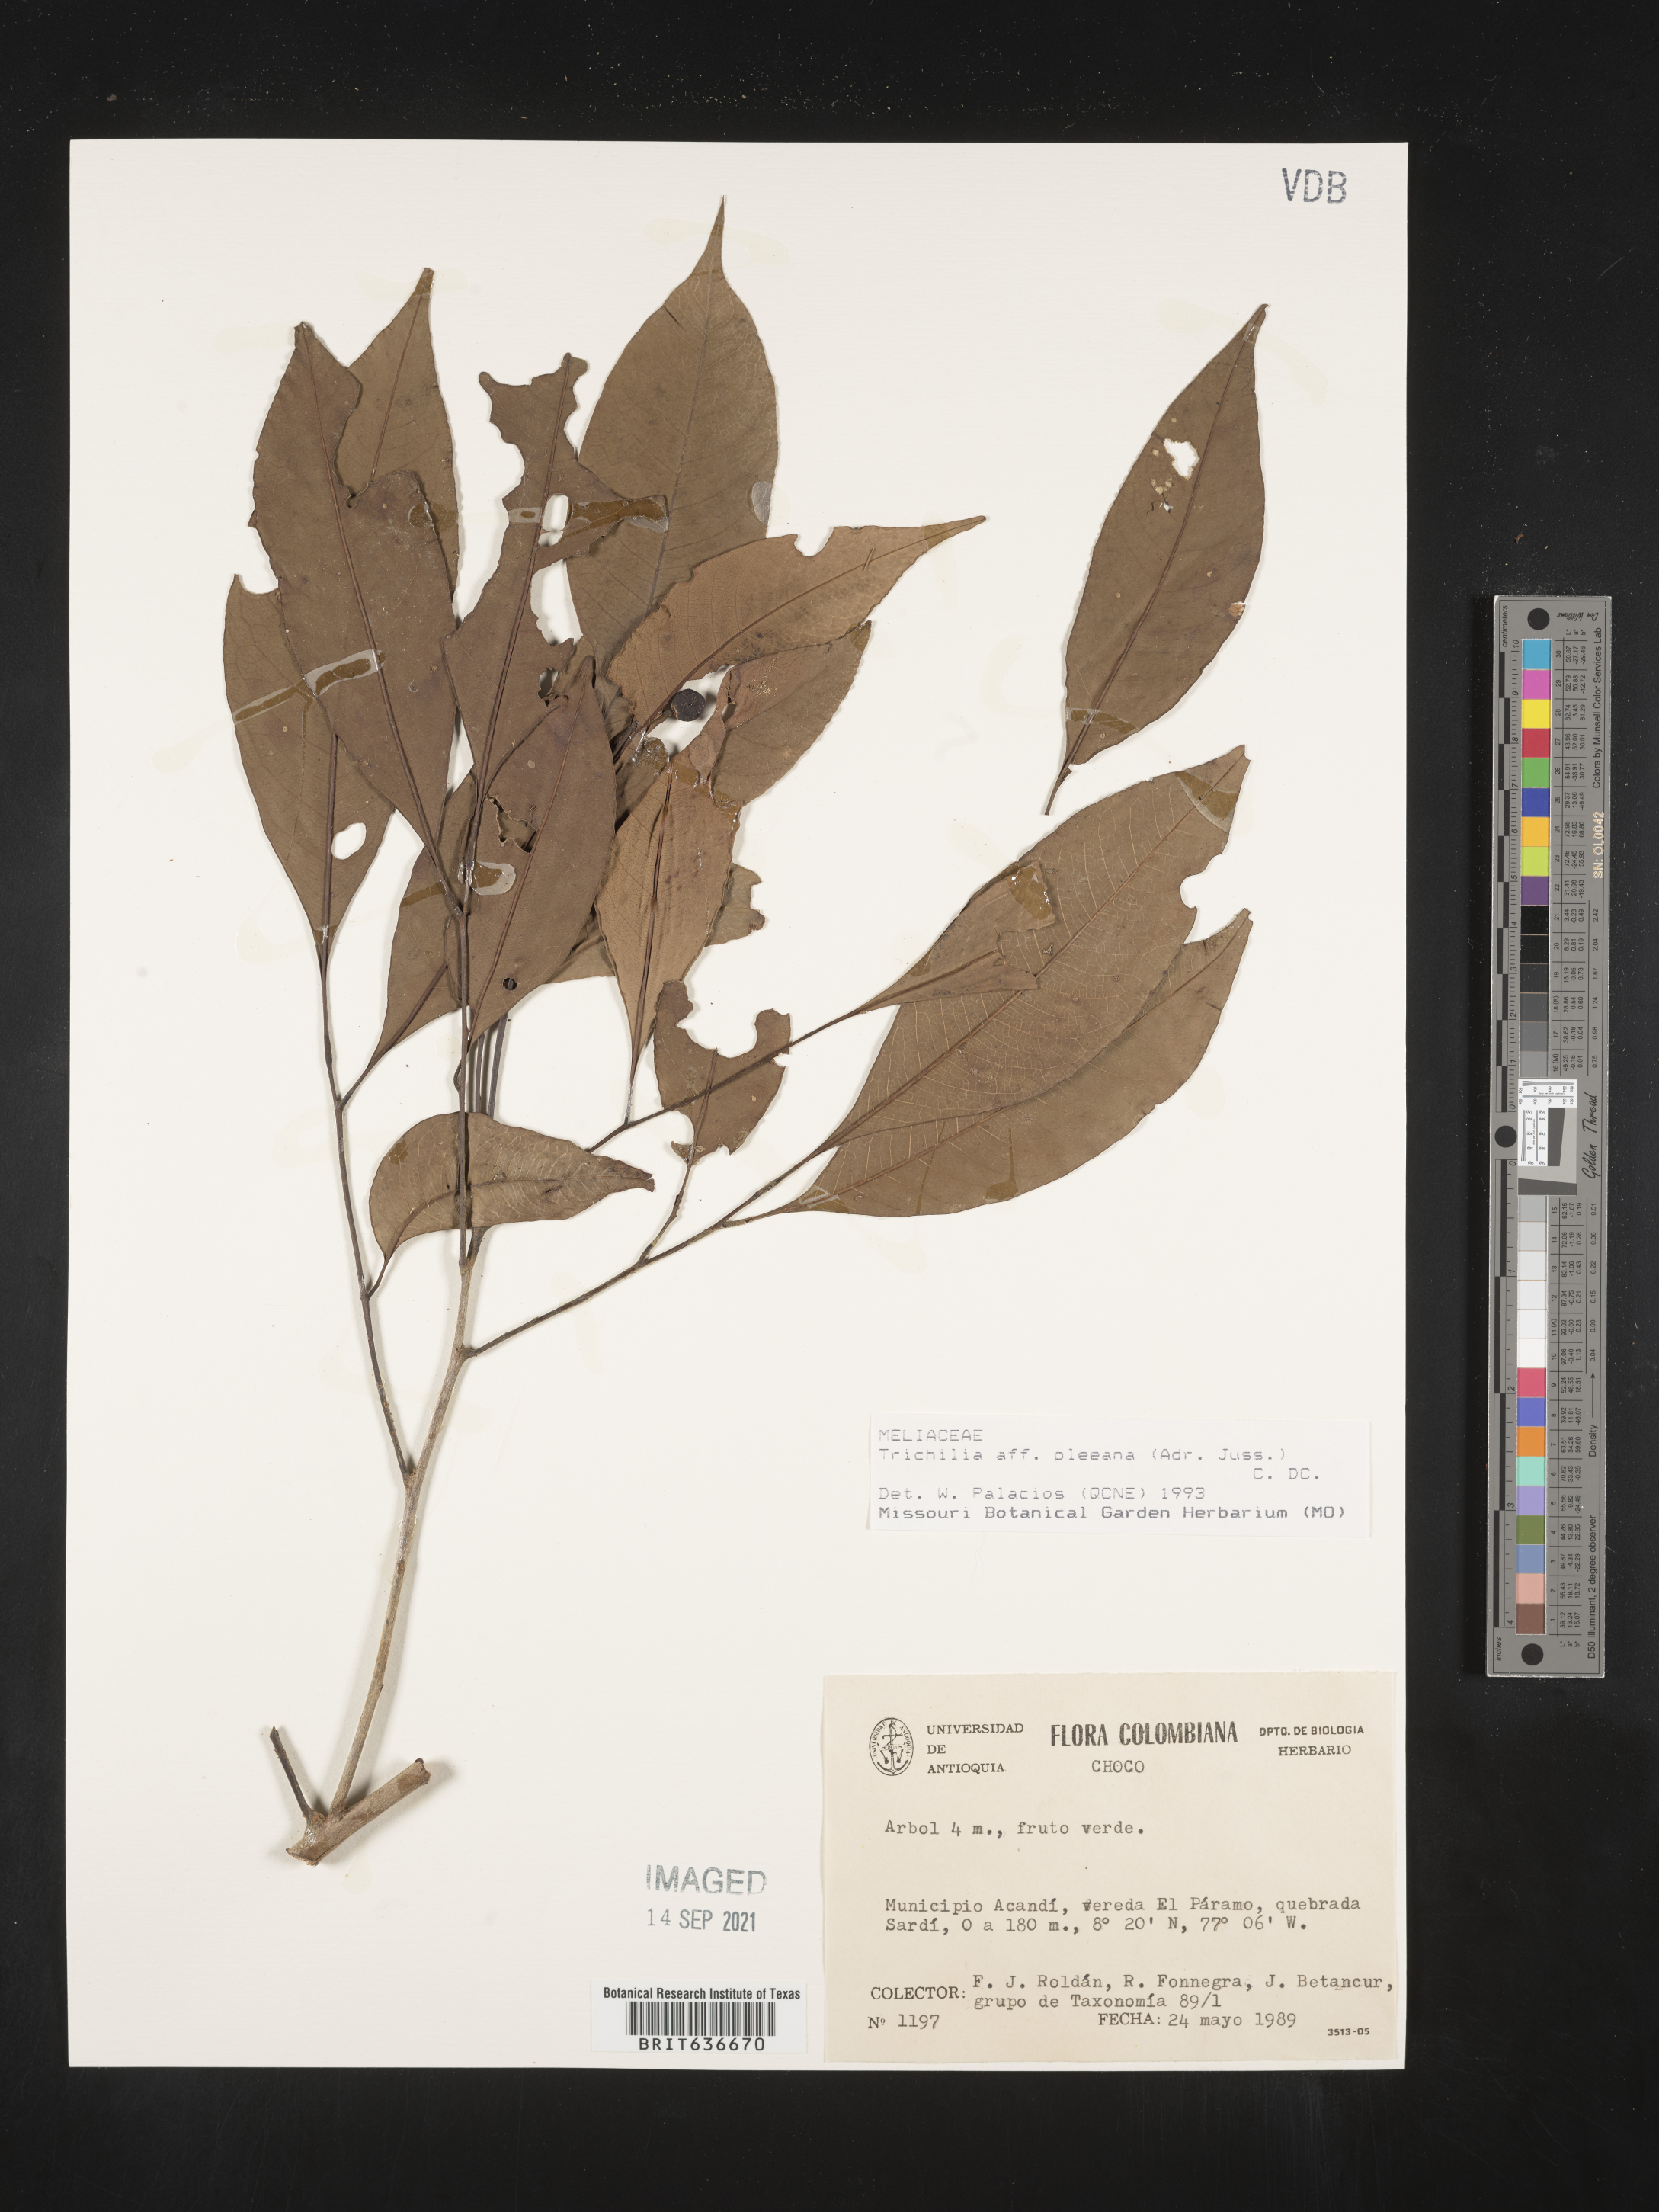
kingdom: Plantae
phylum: Tracheophyta
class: Magnoliopsida
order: Sapindales
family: Meliaceae
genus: Trichilia
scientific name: Trichilia
